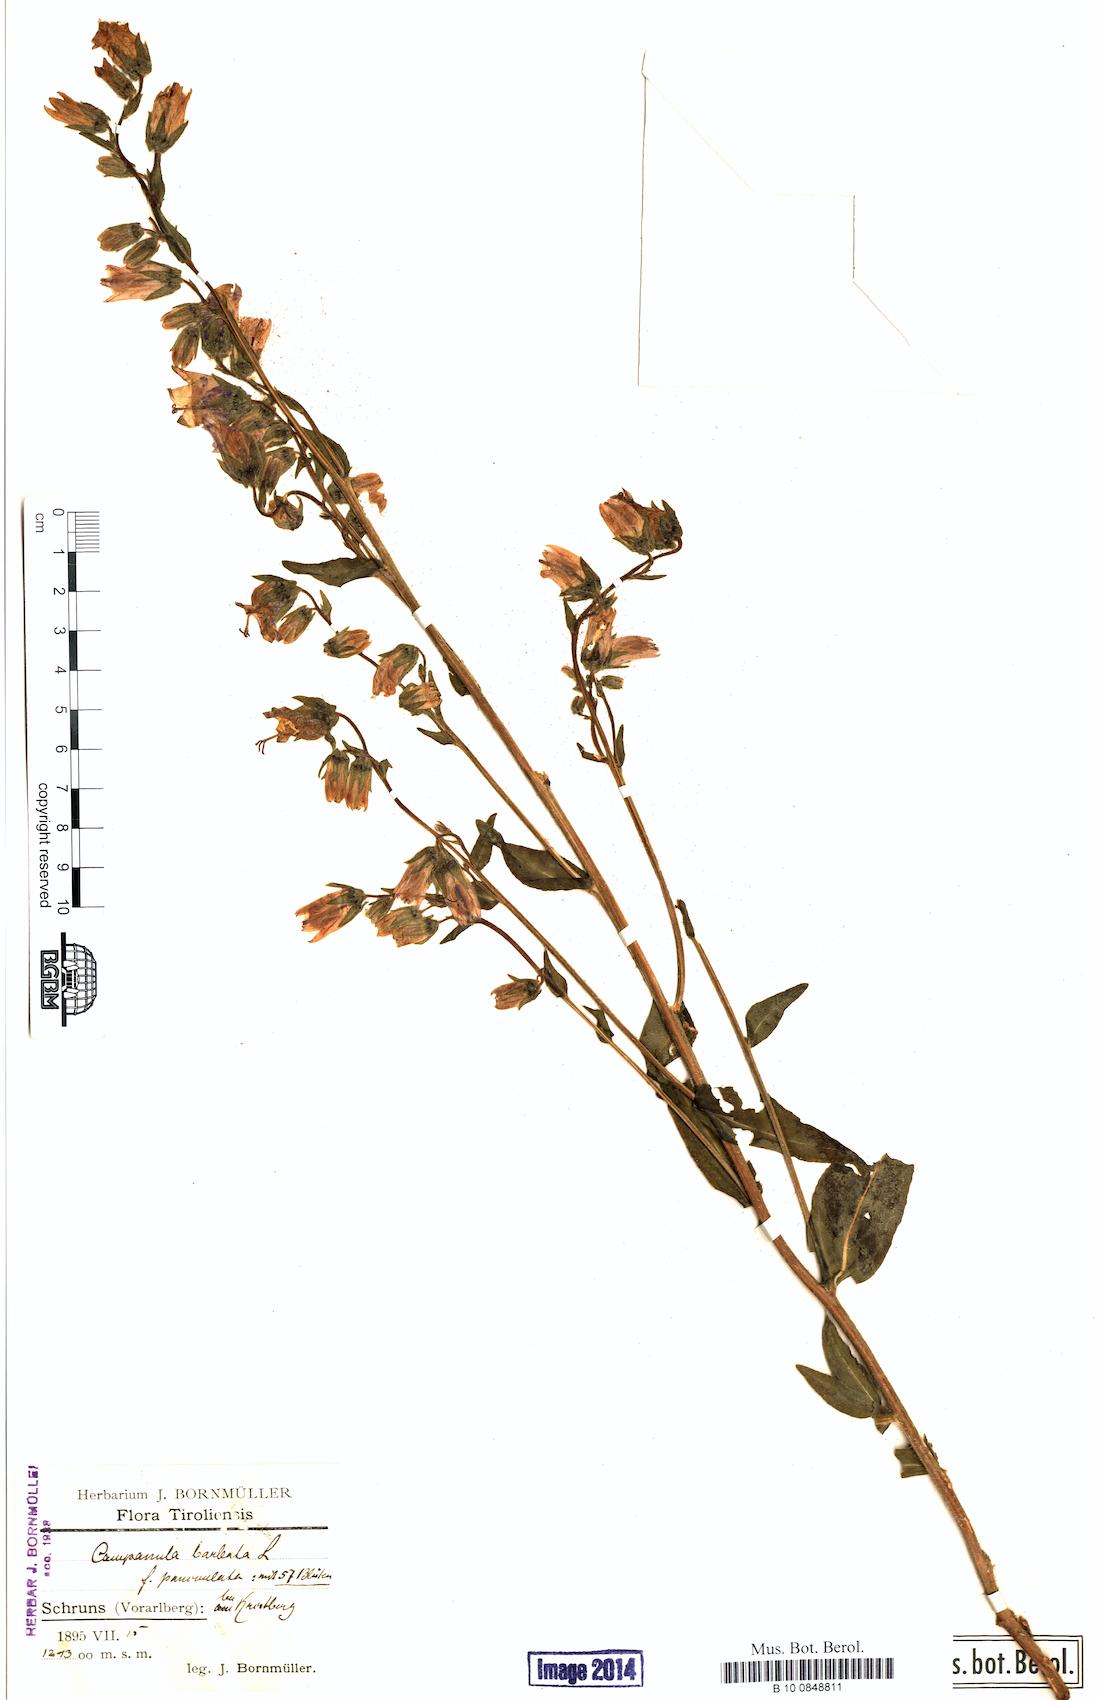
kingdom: Plantae
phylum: Tracheophyta
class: Magnoliopsida
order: Asterales
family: Campanulaceae
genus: Campanula
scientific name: Campanula barbata
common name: Bearded bellflower
